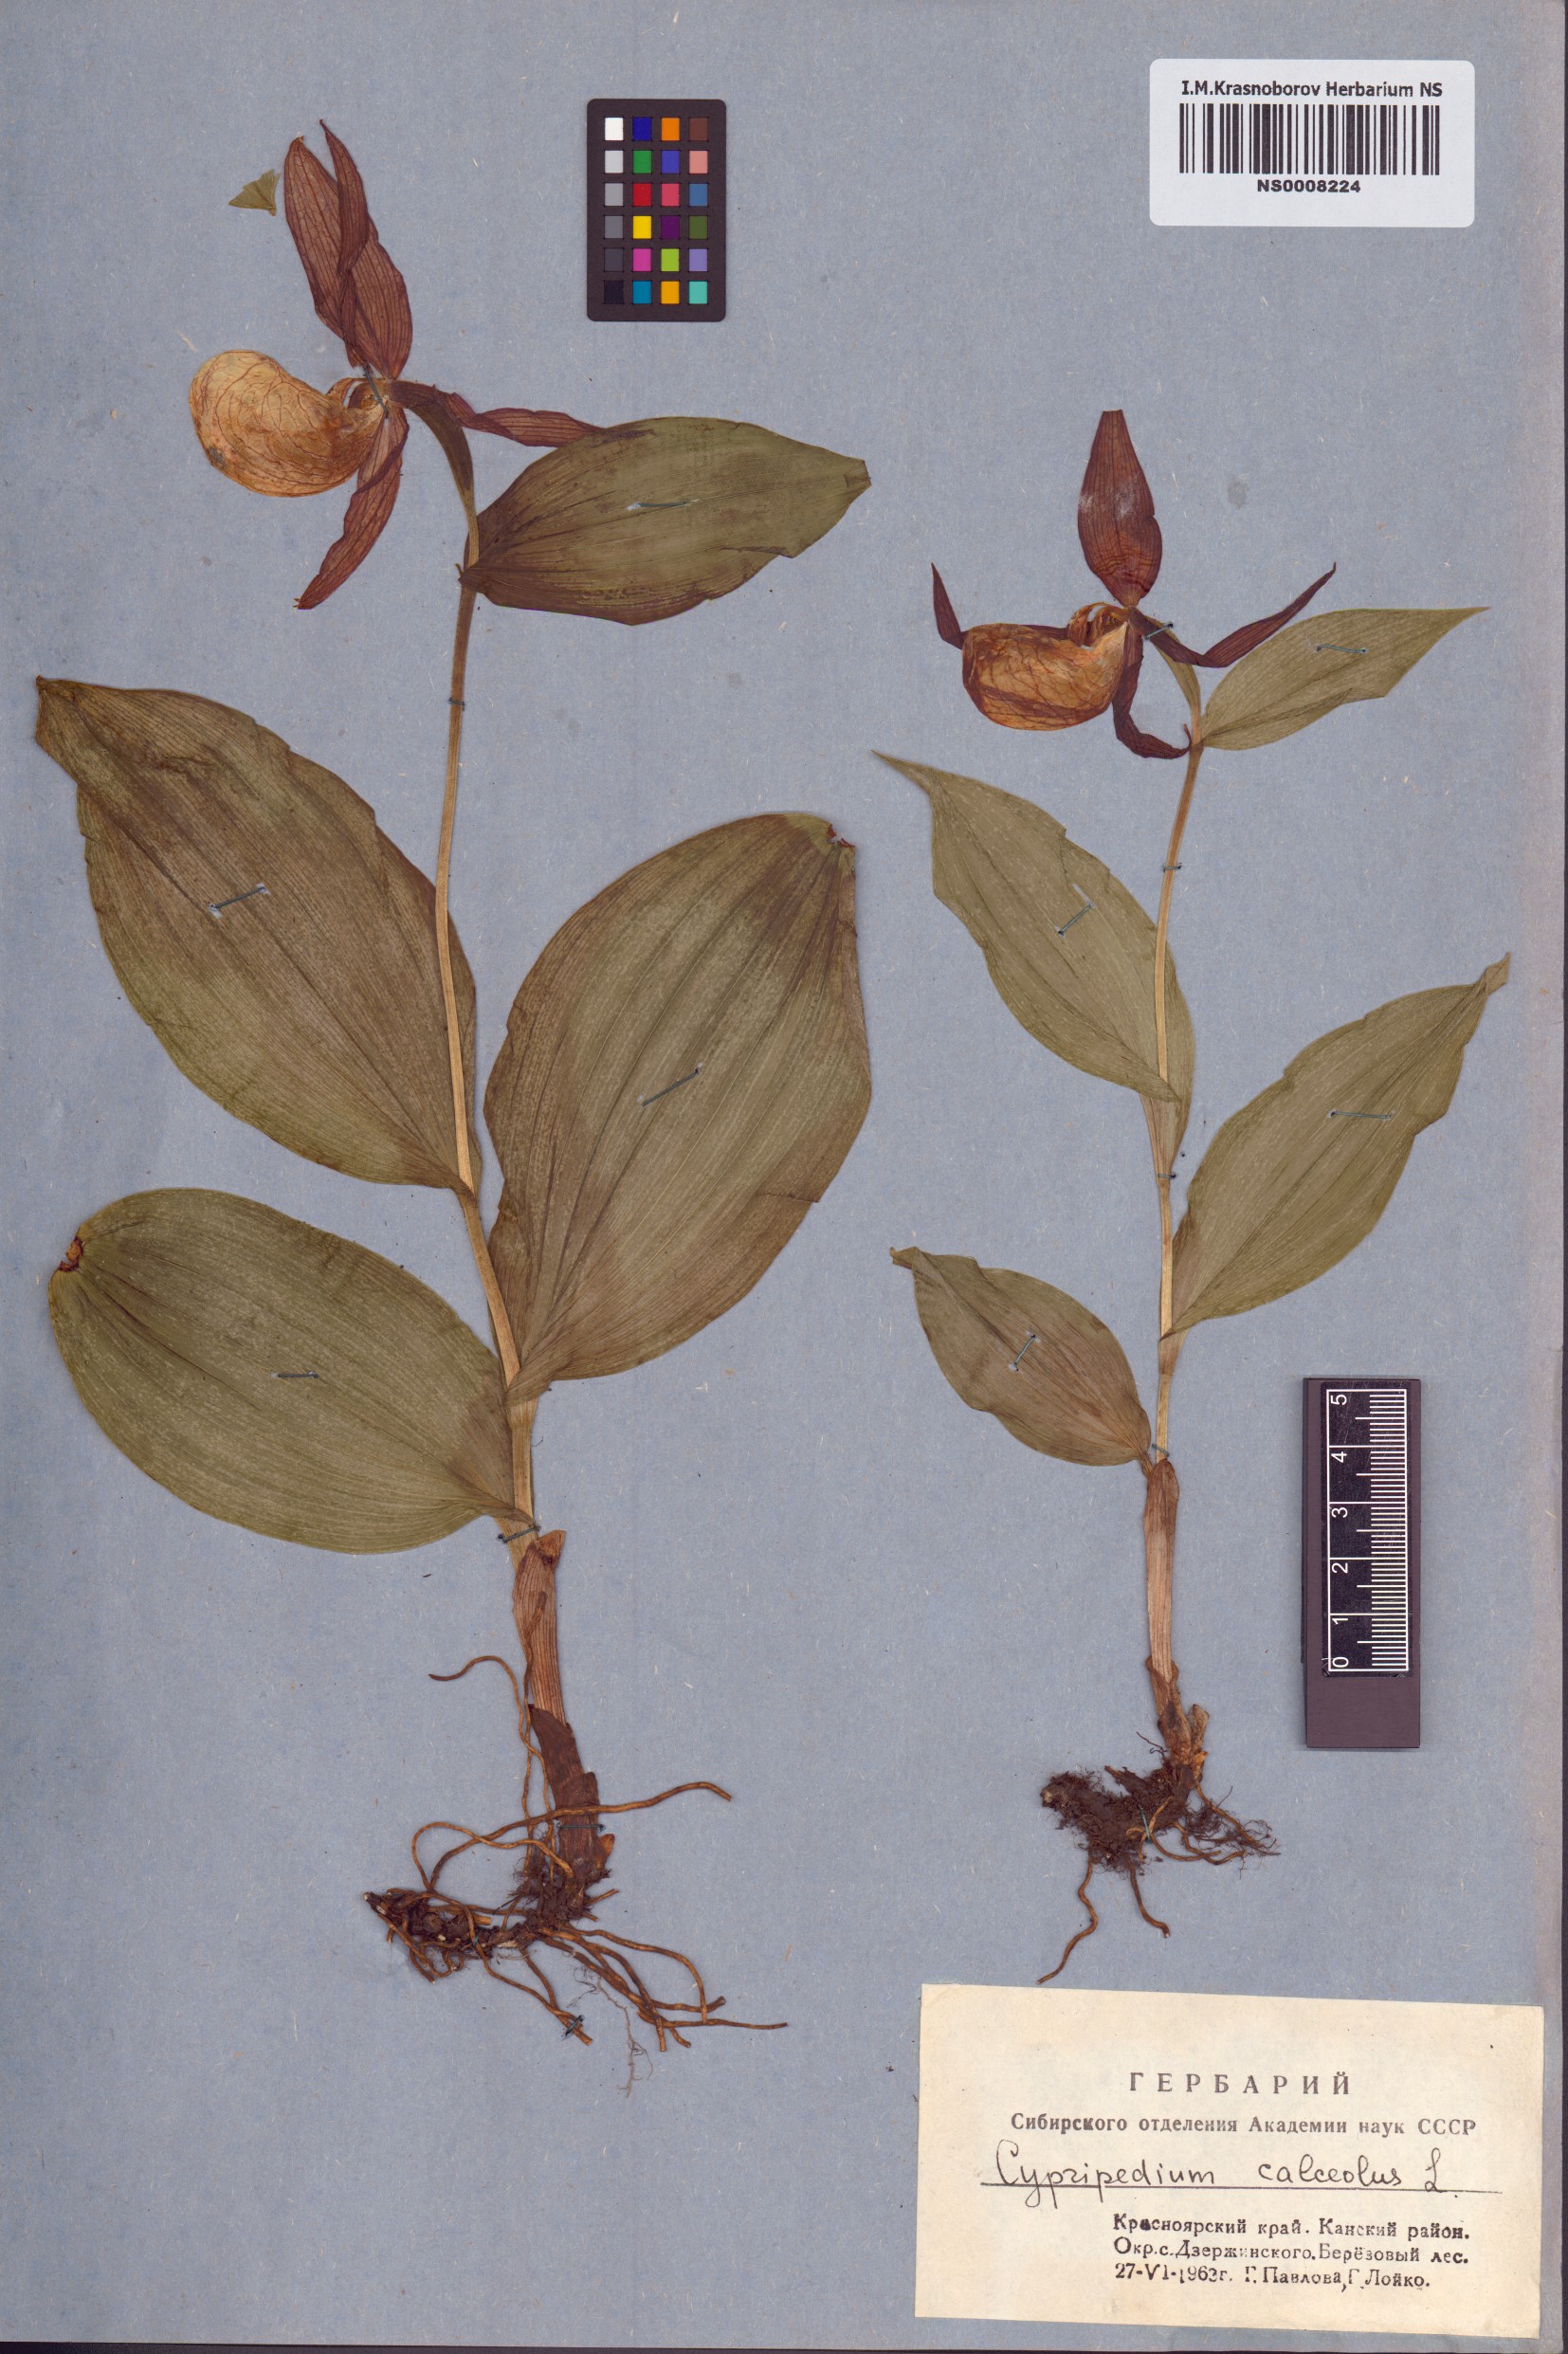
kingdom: Plantae
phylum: Tracheophyta
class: Liliopsida
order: Asparagales
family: Orchidaceae
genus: Cypripedium
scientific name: Cypripedium calceolus
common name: Lady's-slipper
